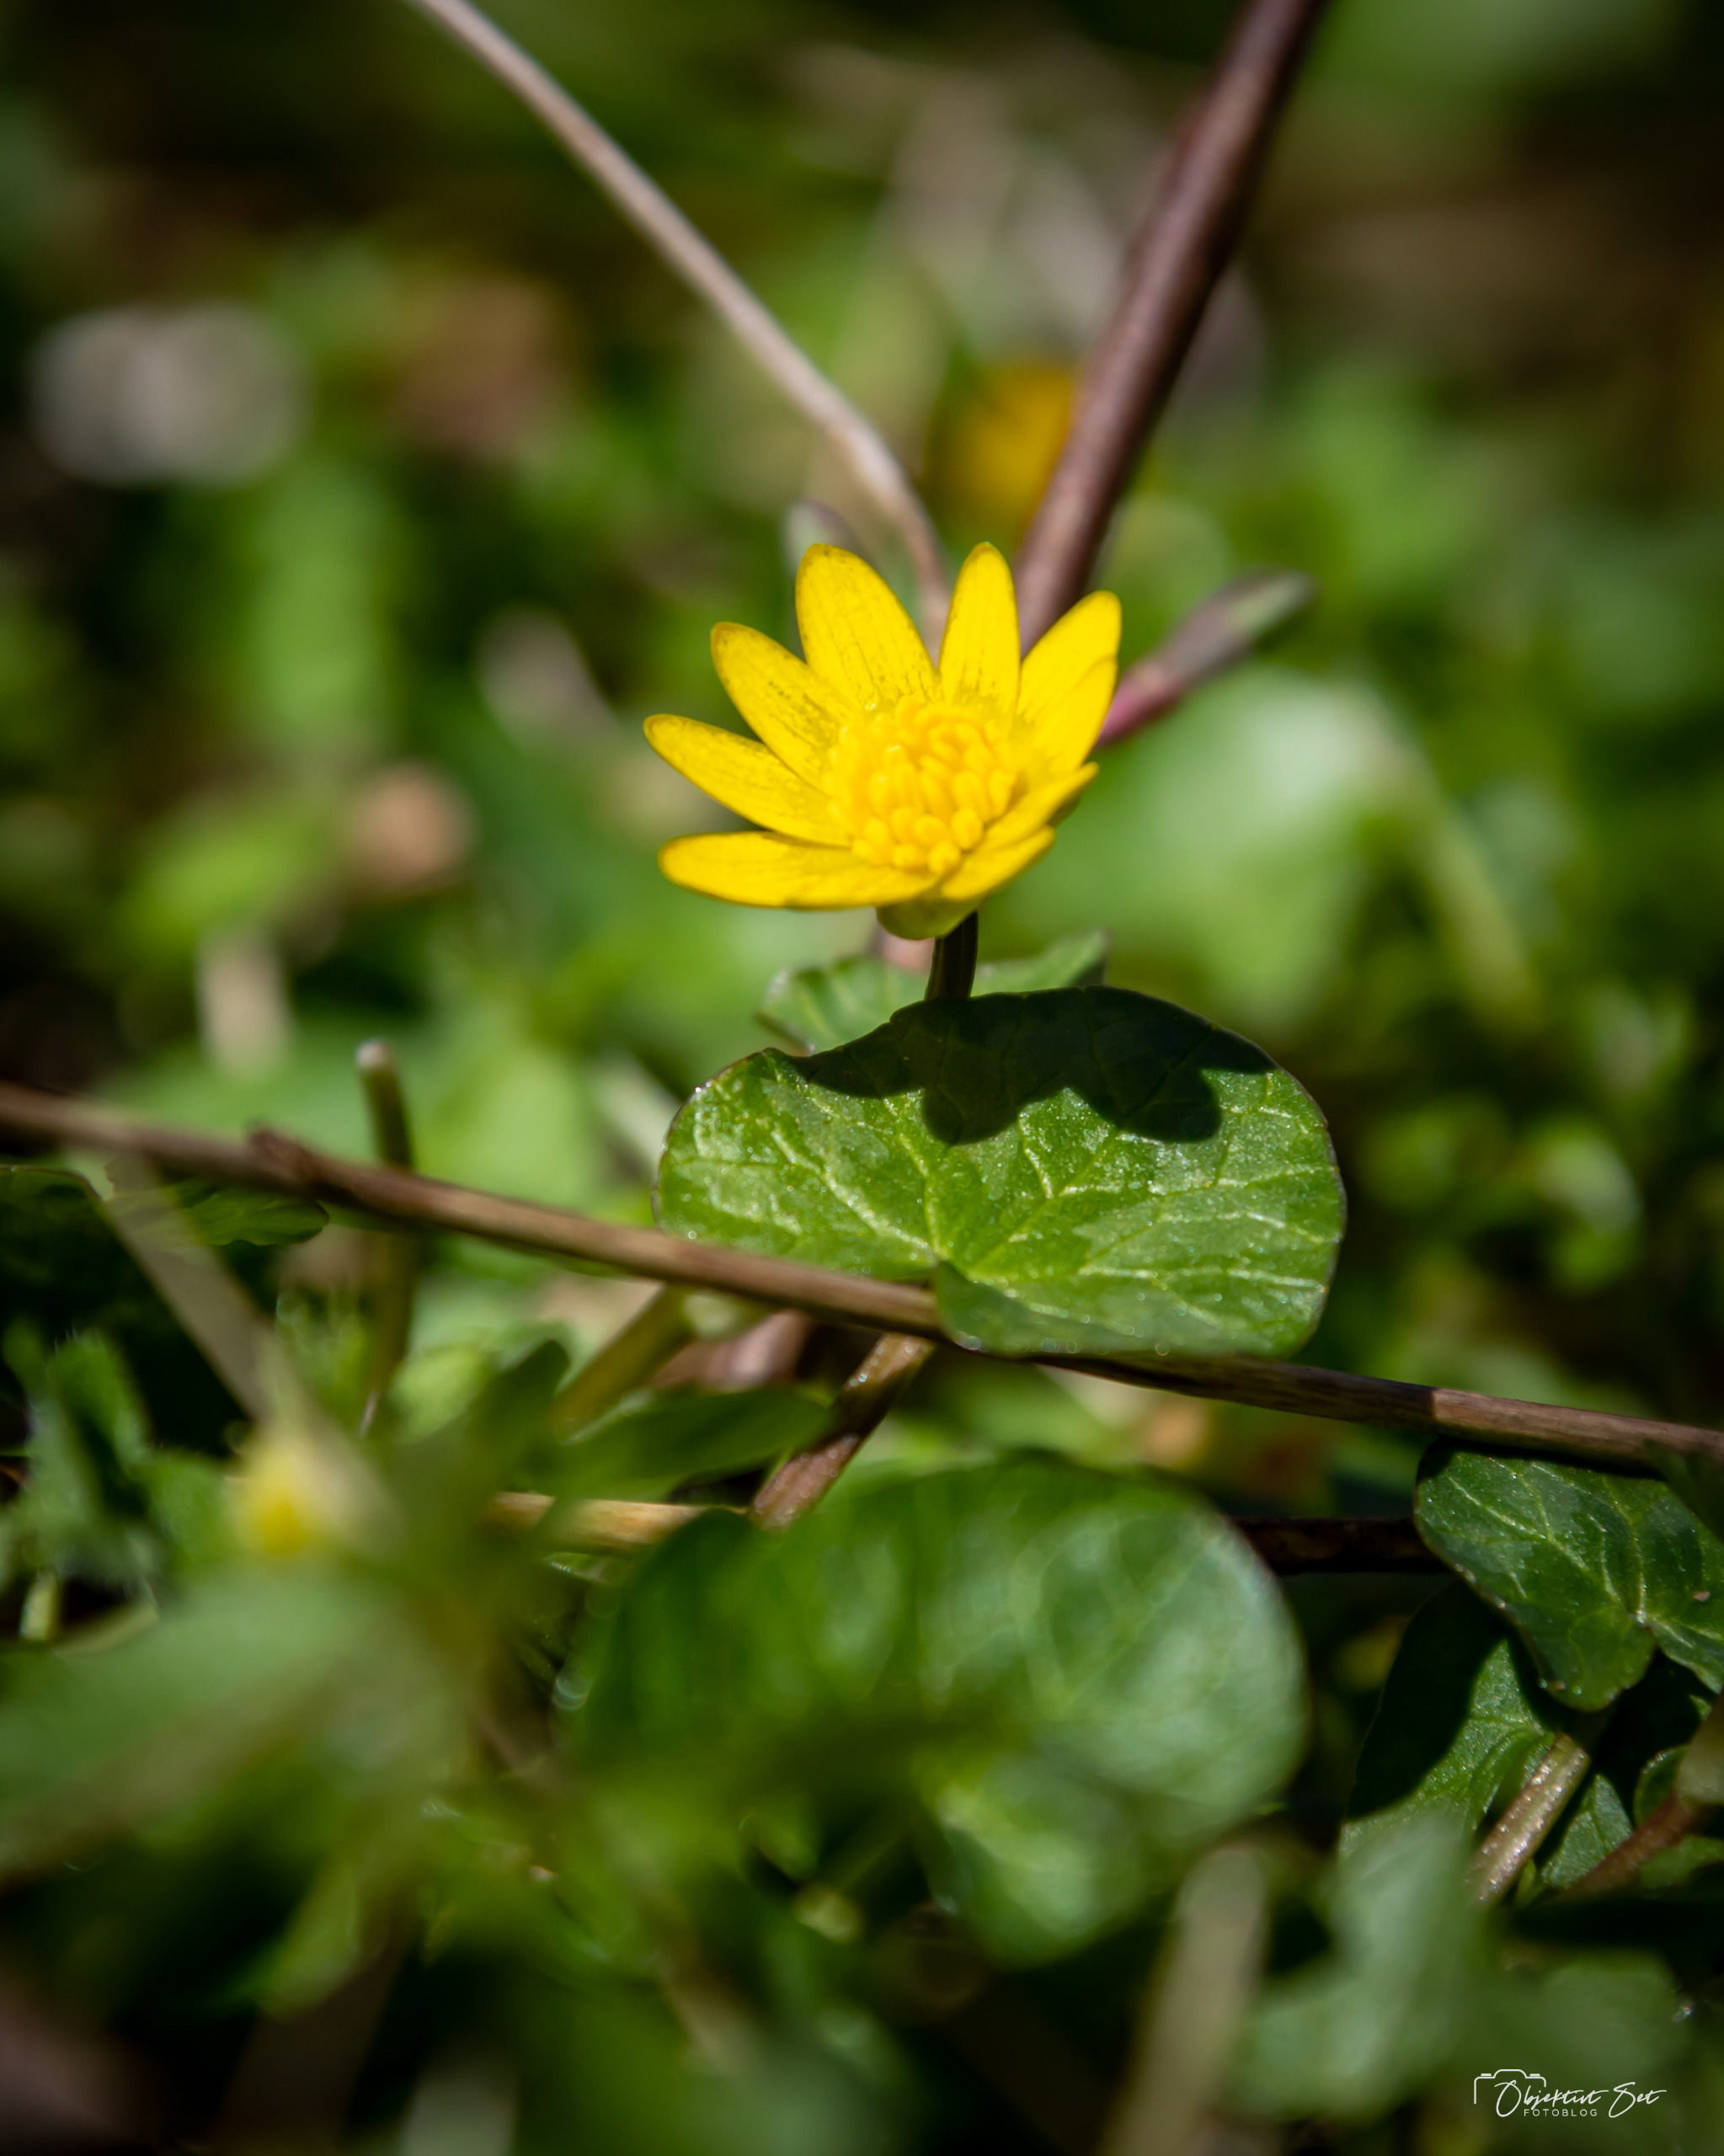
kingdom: Plantae
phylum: Tracheophyta
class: Magnoliopsida
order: Ranunculales
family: Ranunculaceae
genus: Ficaria
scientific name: Ficaria verna
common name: Vorterod
